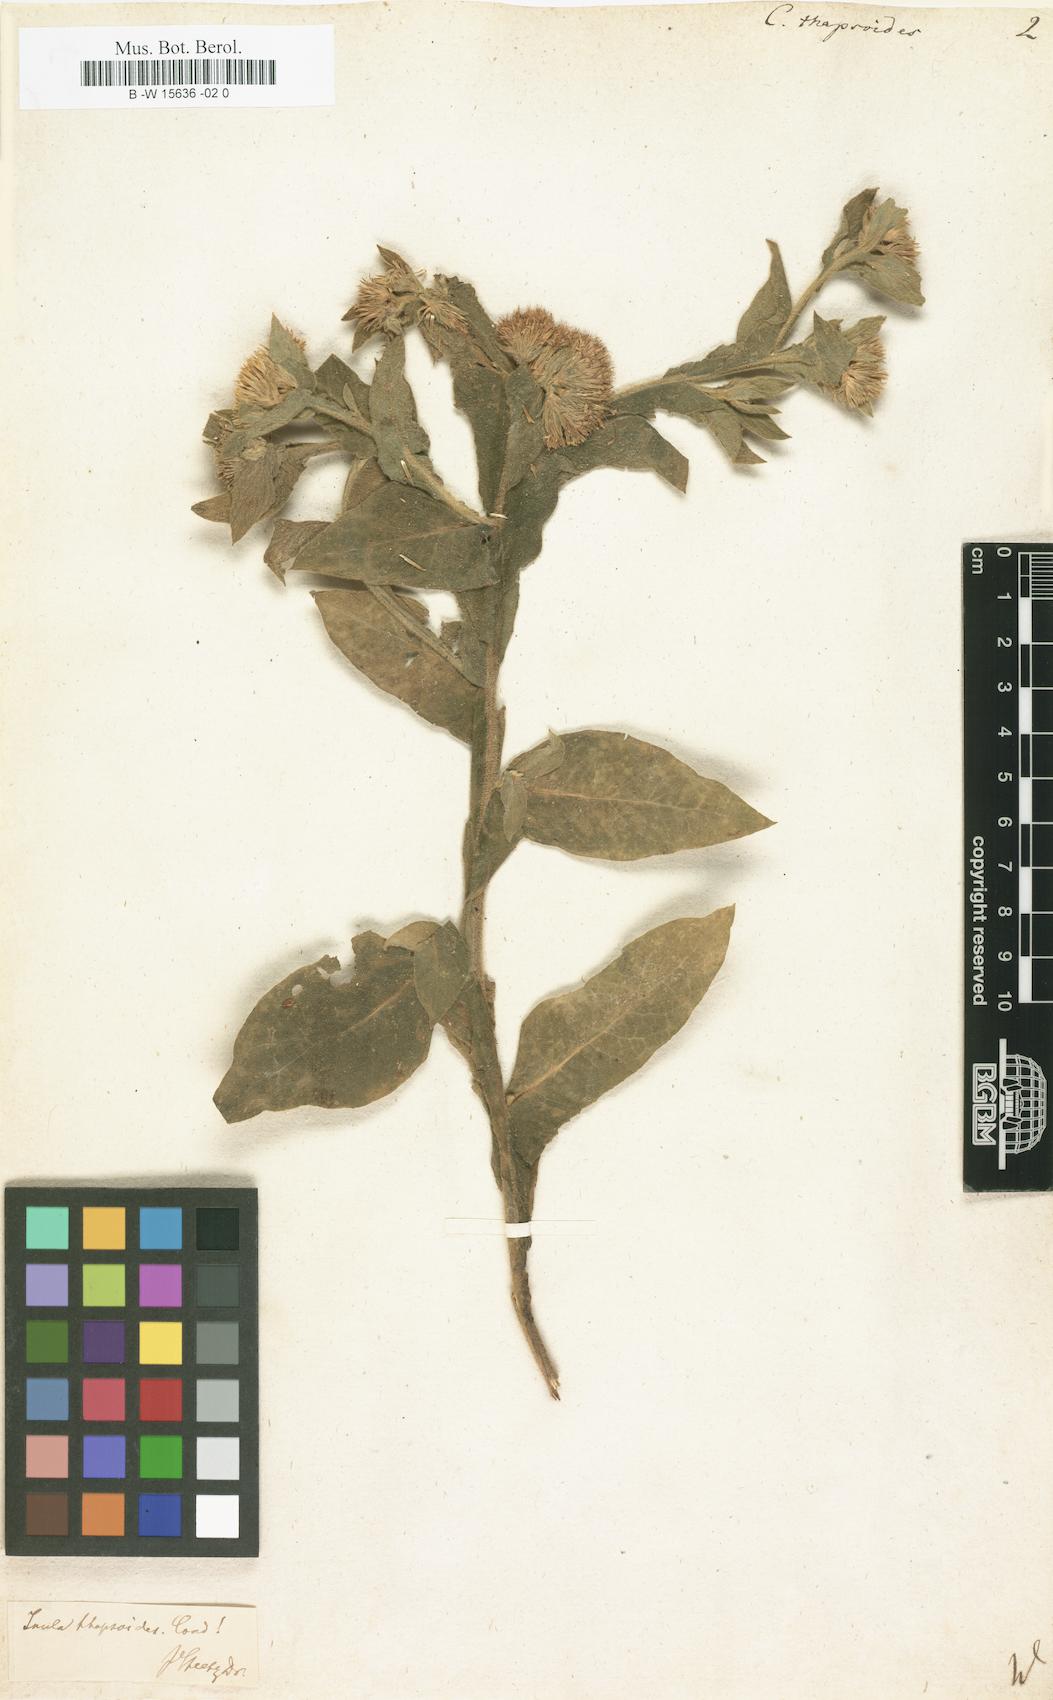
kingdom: Plantae
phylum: Tracheophyta
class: Magnoliopsida
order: Asterales
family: Asteraceae
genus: Inula
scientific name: Inula thapsoides
